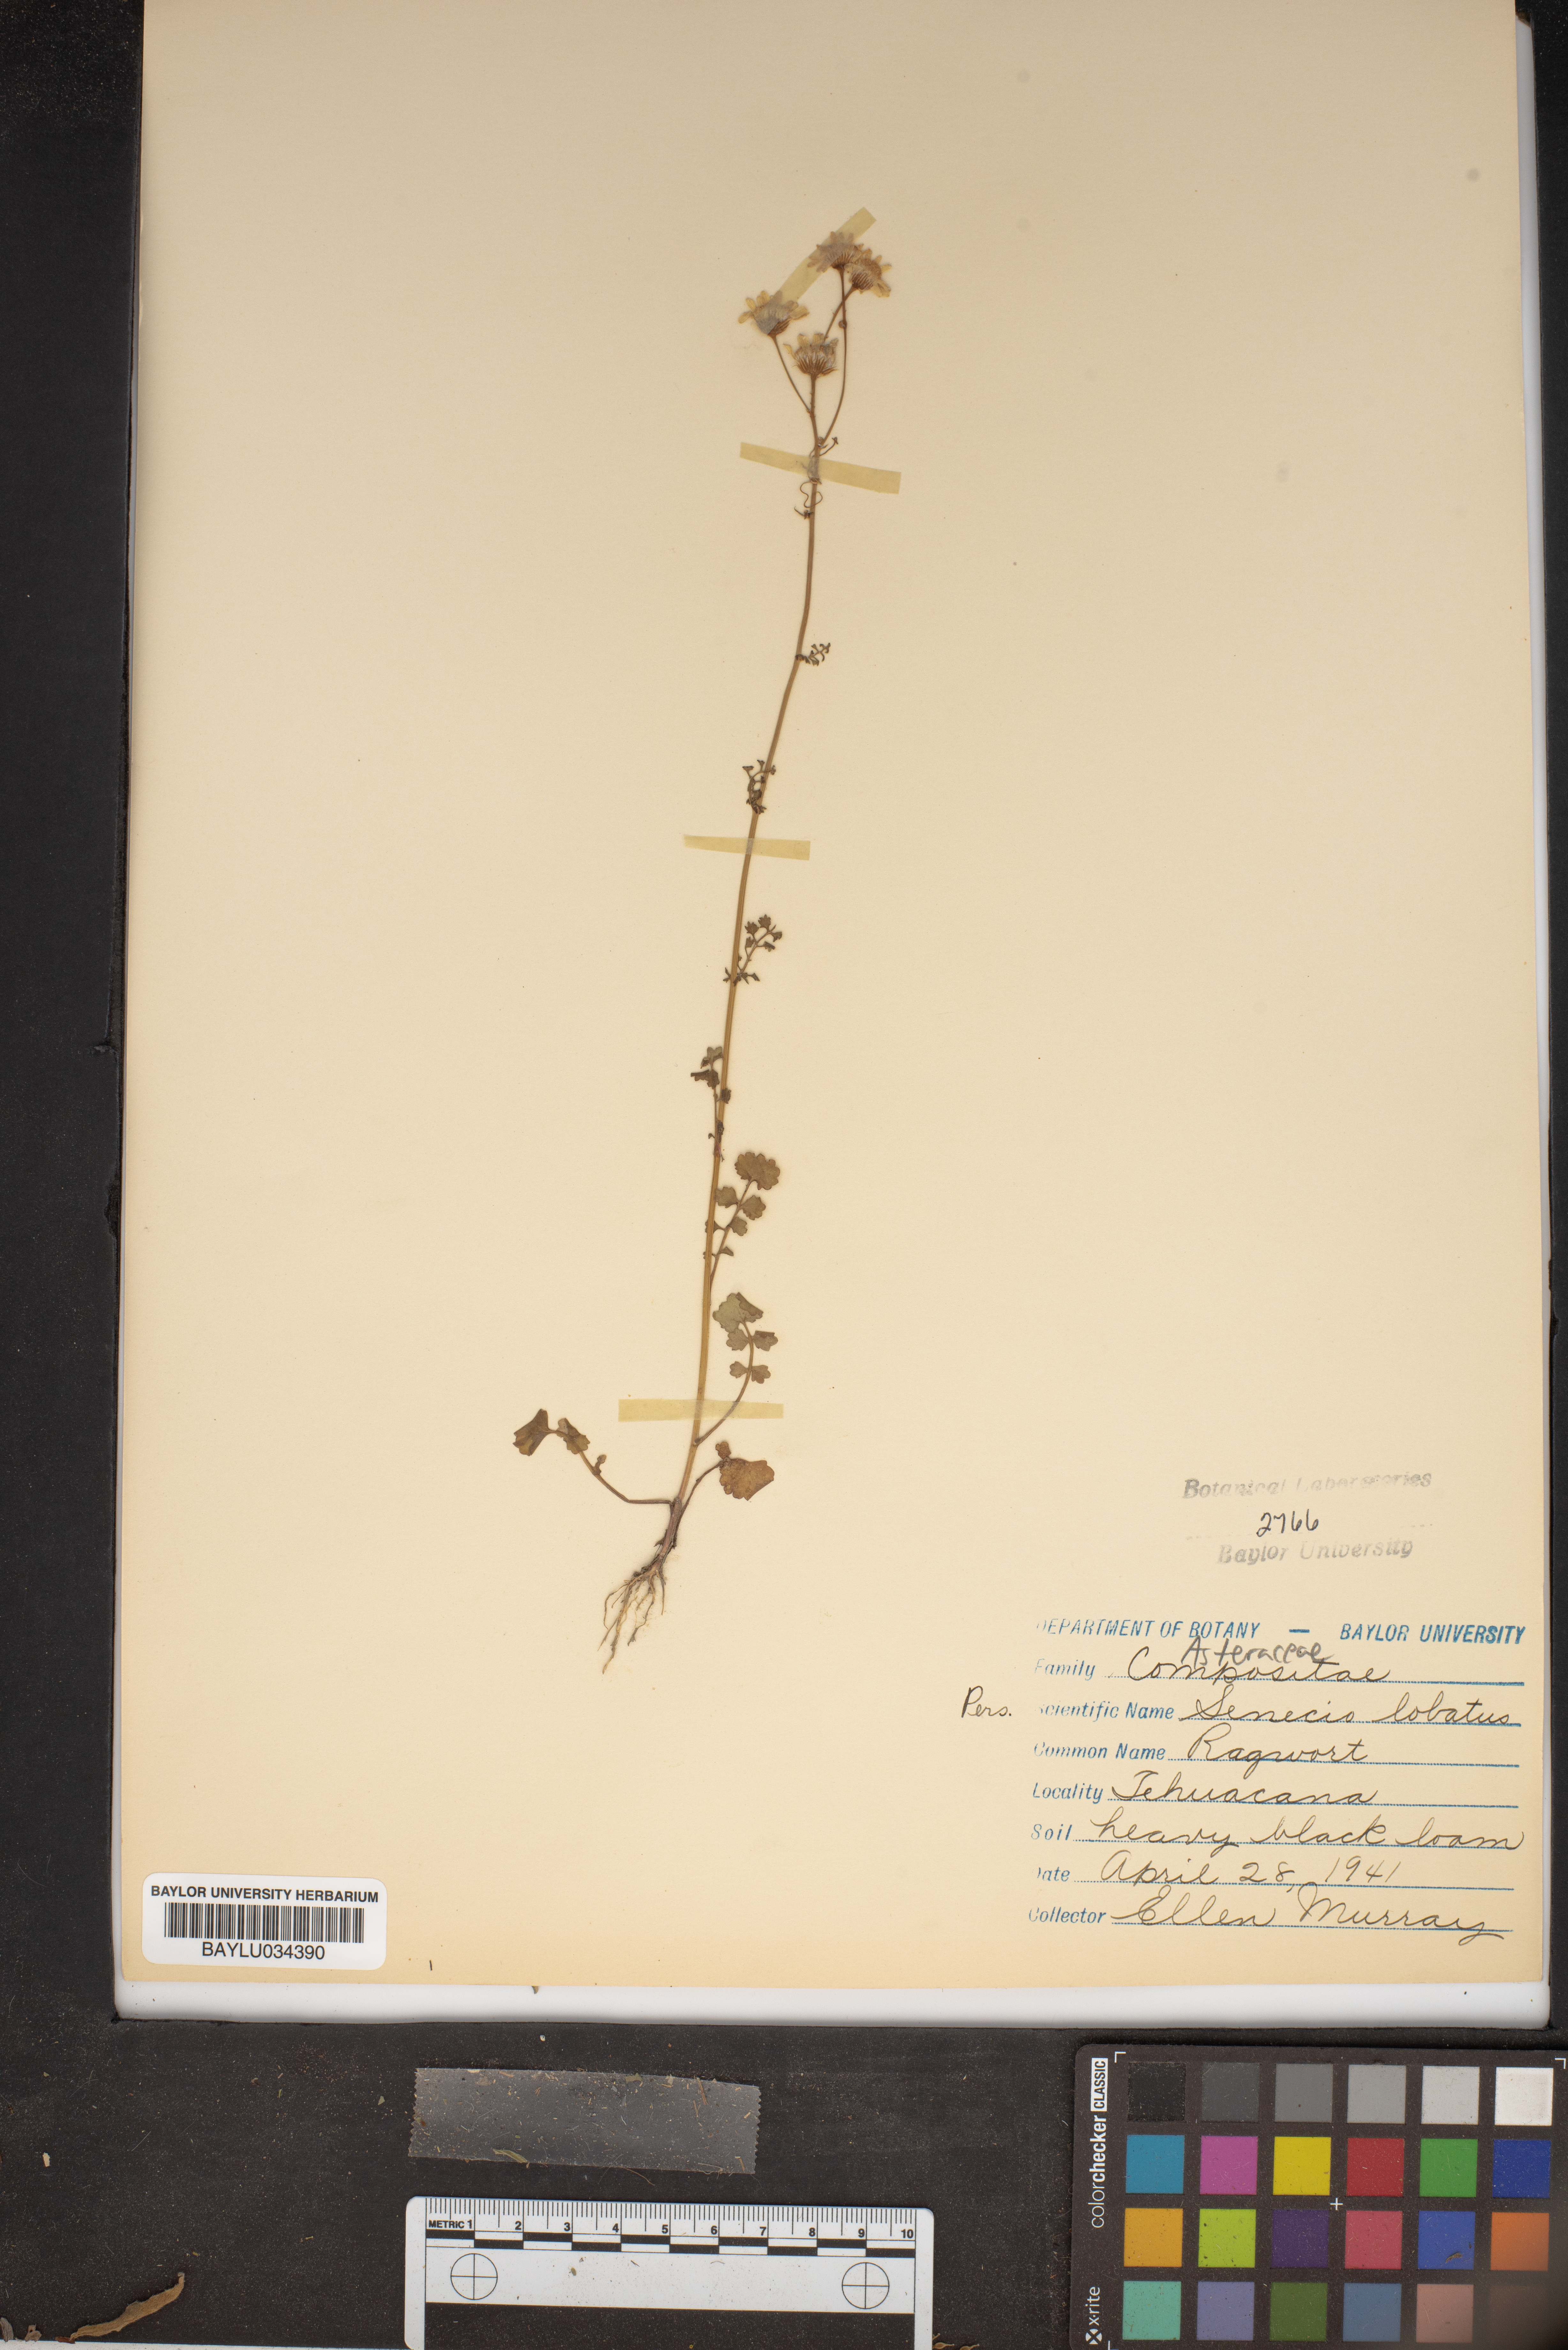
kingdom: Plantae
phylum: Tracheophyta
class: Magnoliopsida
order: Asterales
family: Asteraceae
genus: Packera
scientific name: Packera glabella
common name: Butterweed
